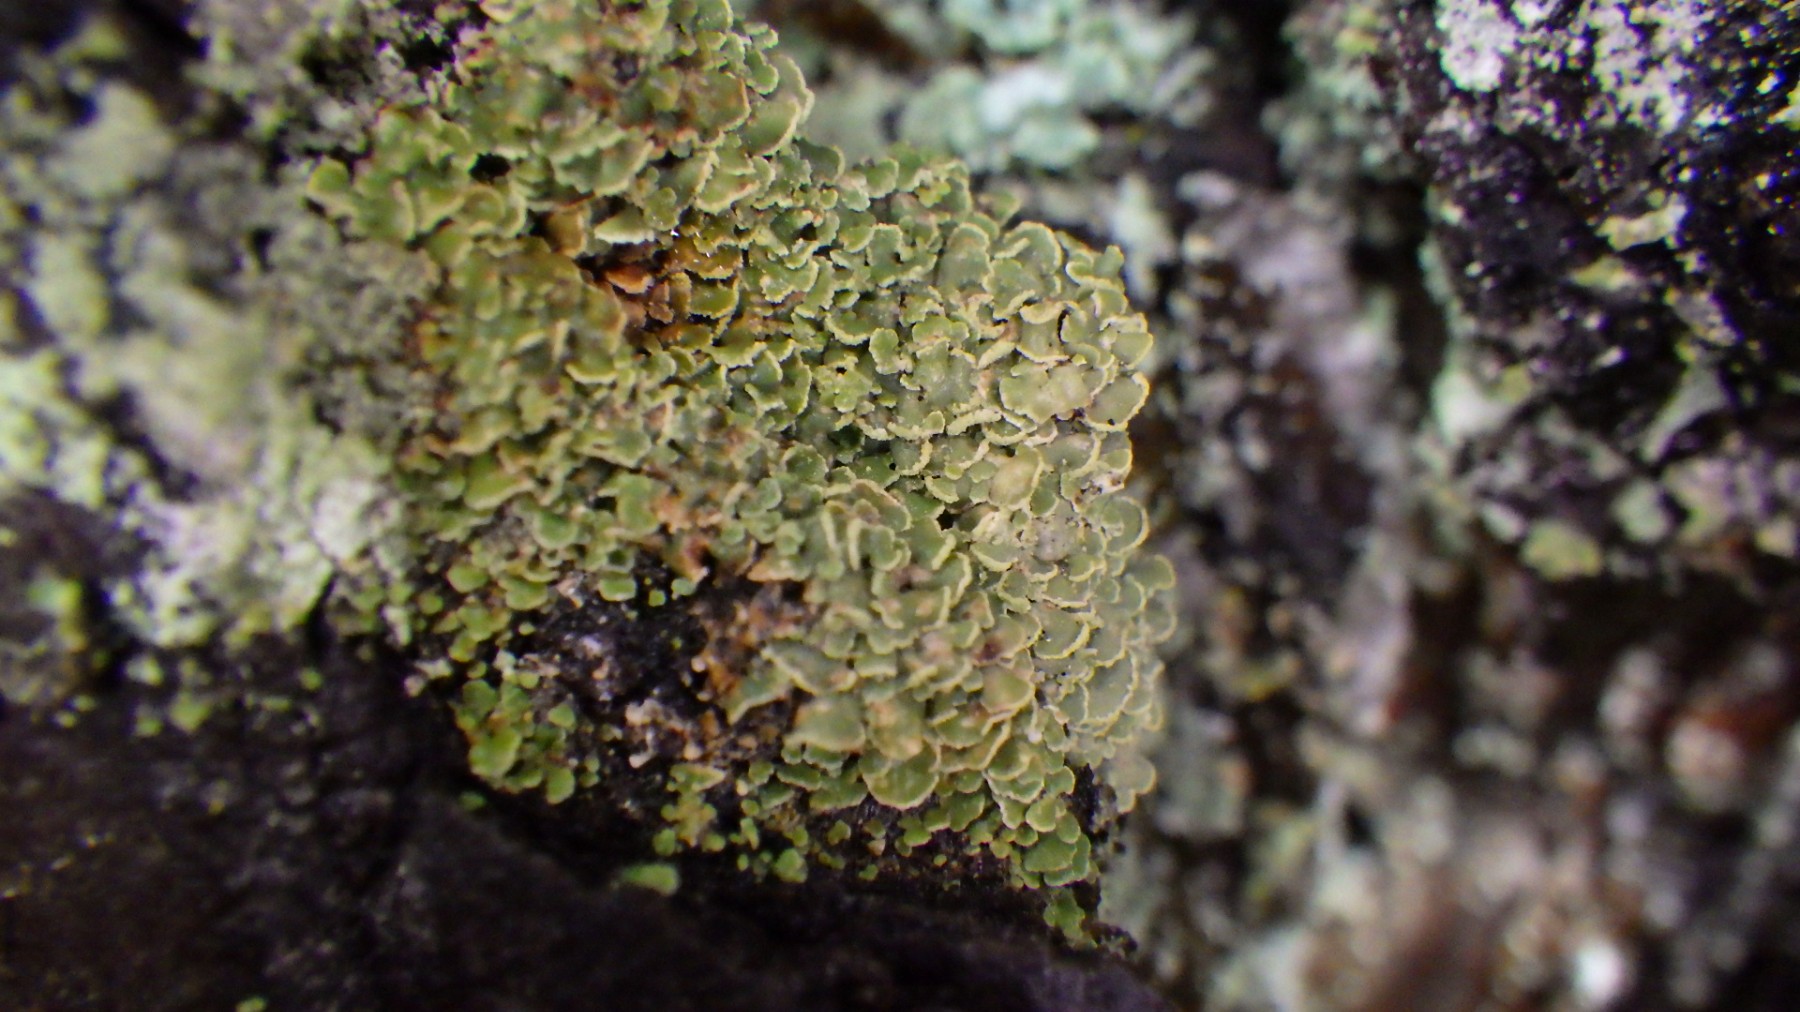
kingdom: Fungi
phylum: Ascomycota
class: Lecanoromycetes
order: Umbilicariales
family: Ophioparmaceae
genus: Hypocenomyce
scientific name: Hypocenomyce scalaris
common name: småskællet muslinglav
